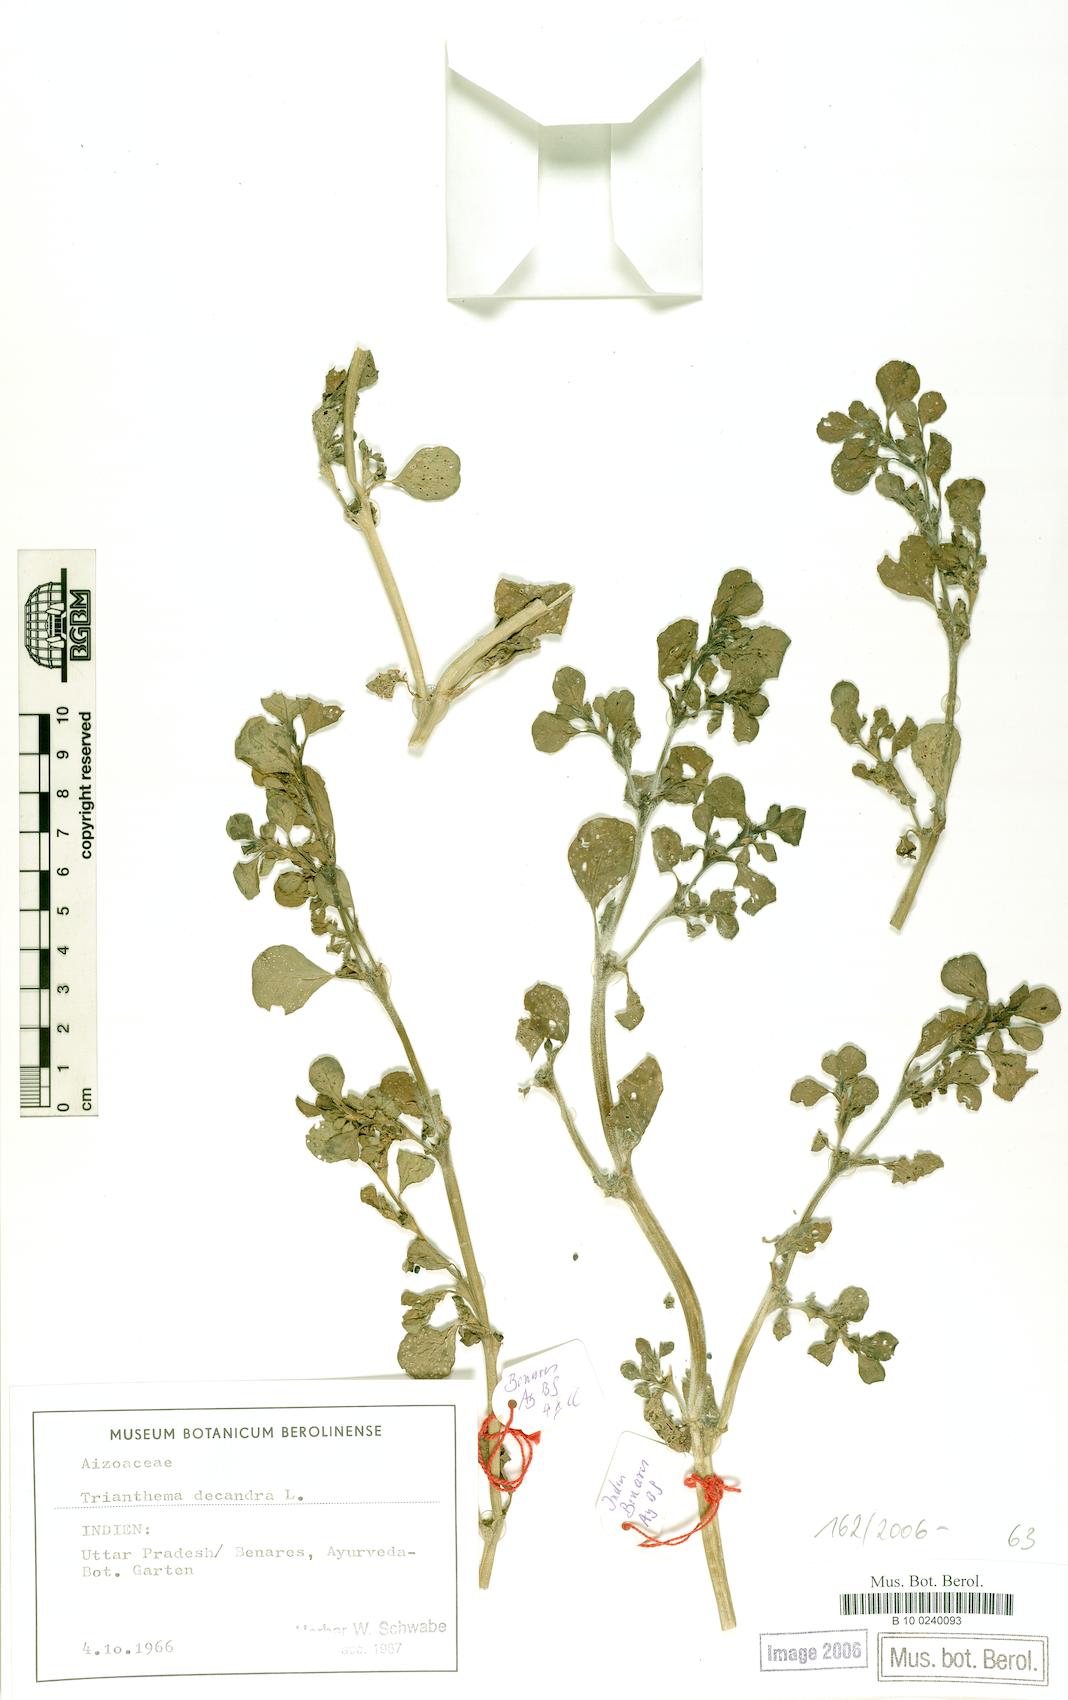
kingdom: Plantae
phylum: Tracheophyta
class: Magnoliopsida
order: Caryophyllales
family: Aizoaceae
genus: Zaleya
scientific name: Zaleya decandra
